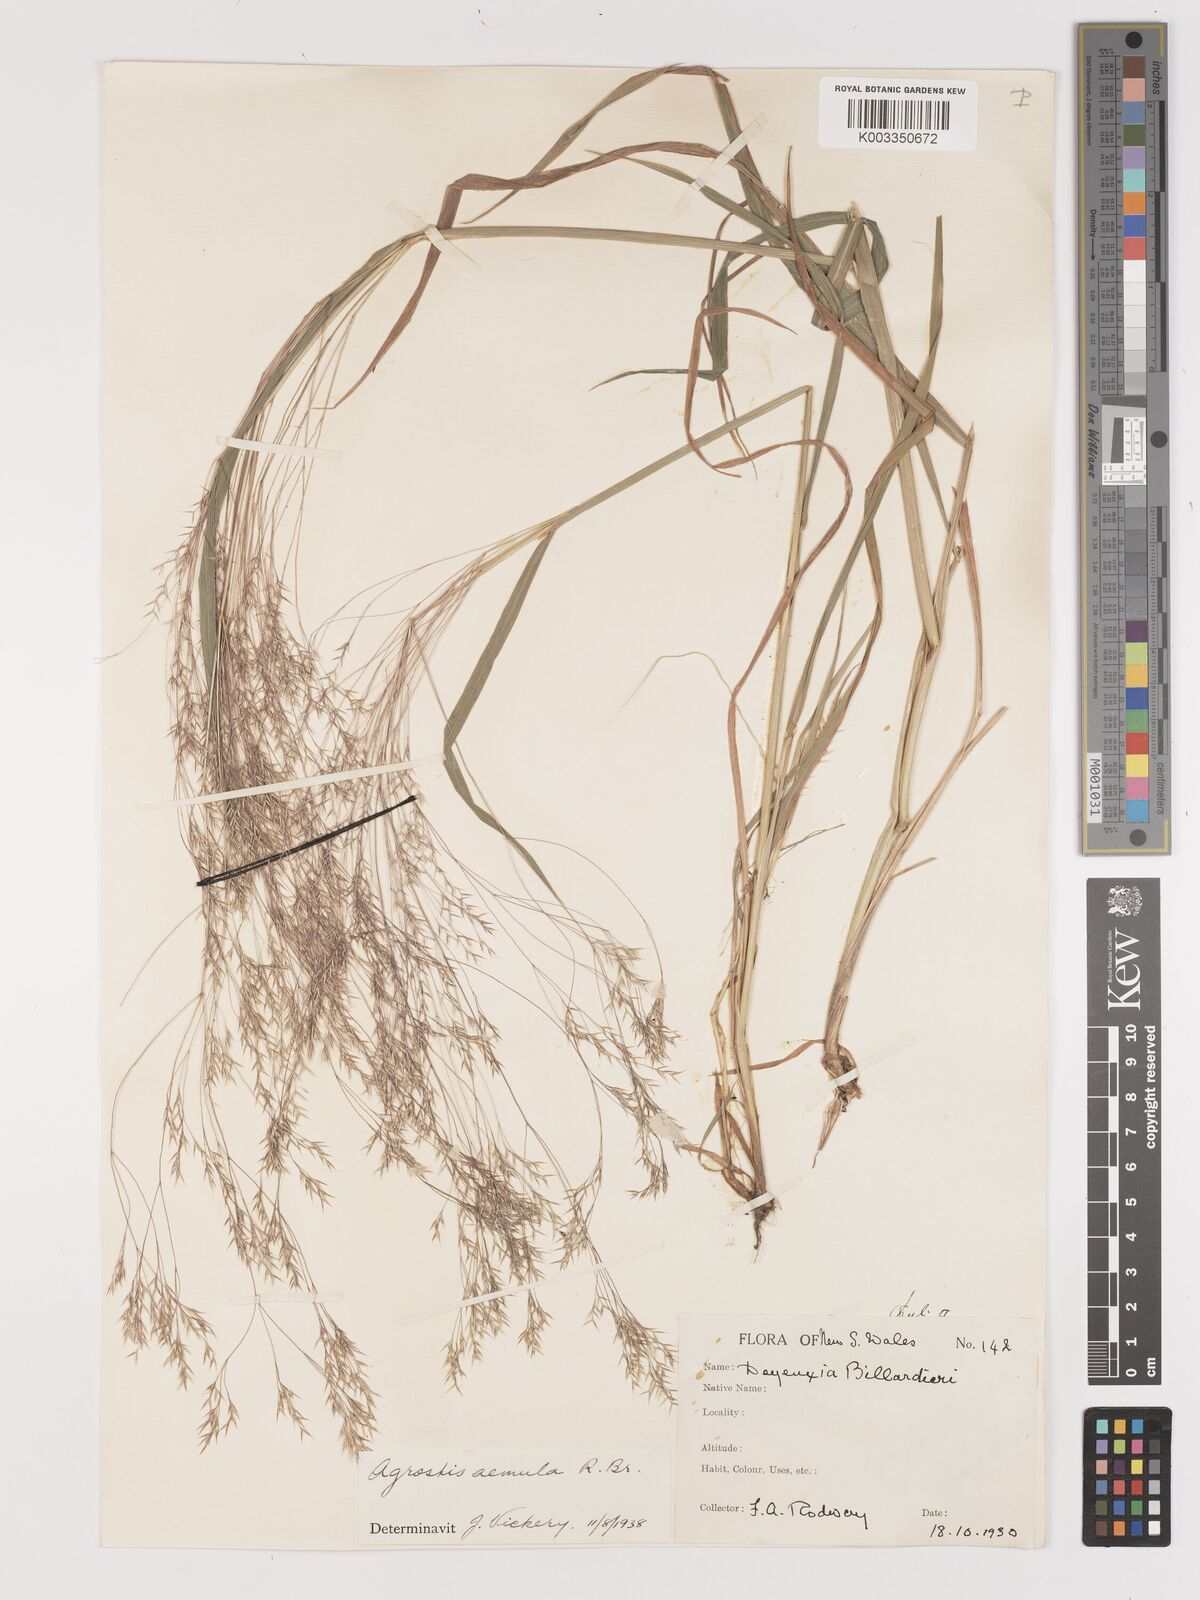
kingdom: Plantae
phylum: Tracheophyta
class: Liliopsida
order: Poales
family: Poaceae
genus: Lachnagrostis
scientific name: Lachnagrostis aemula
